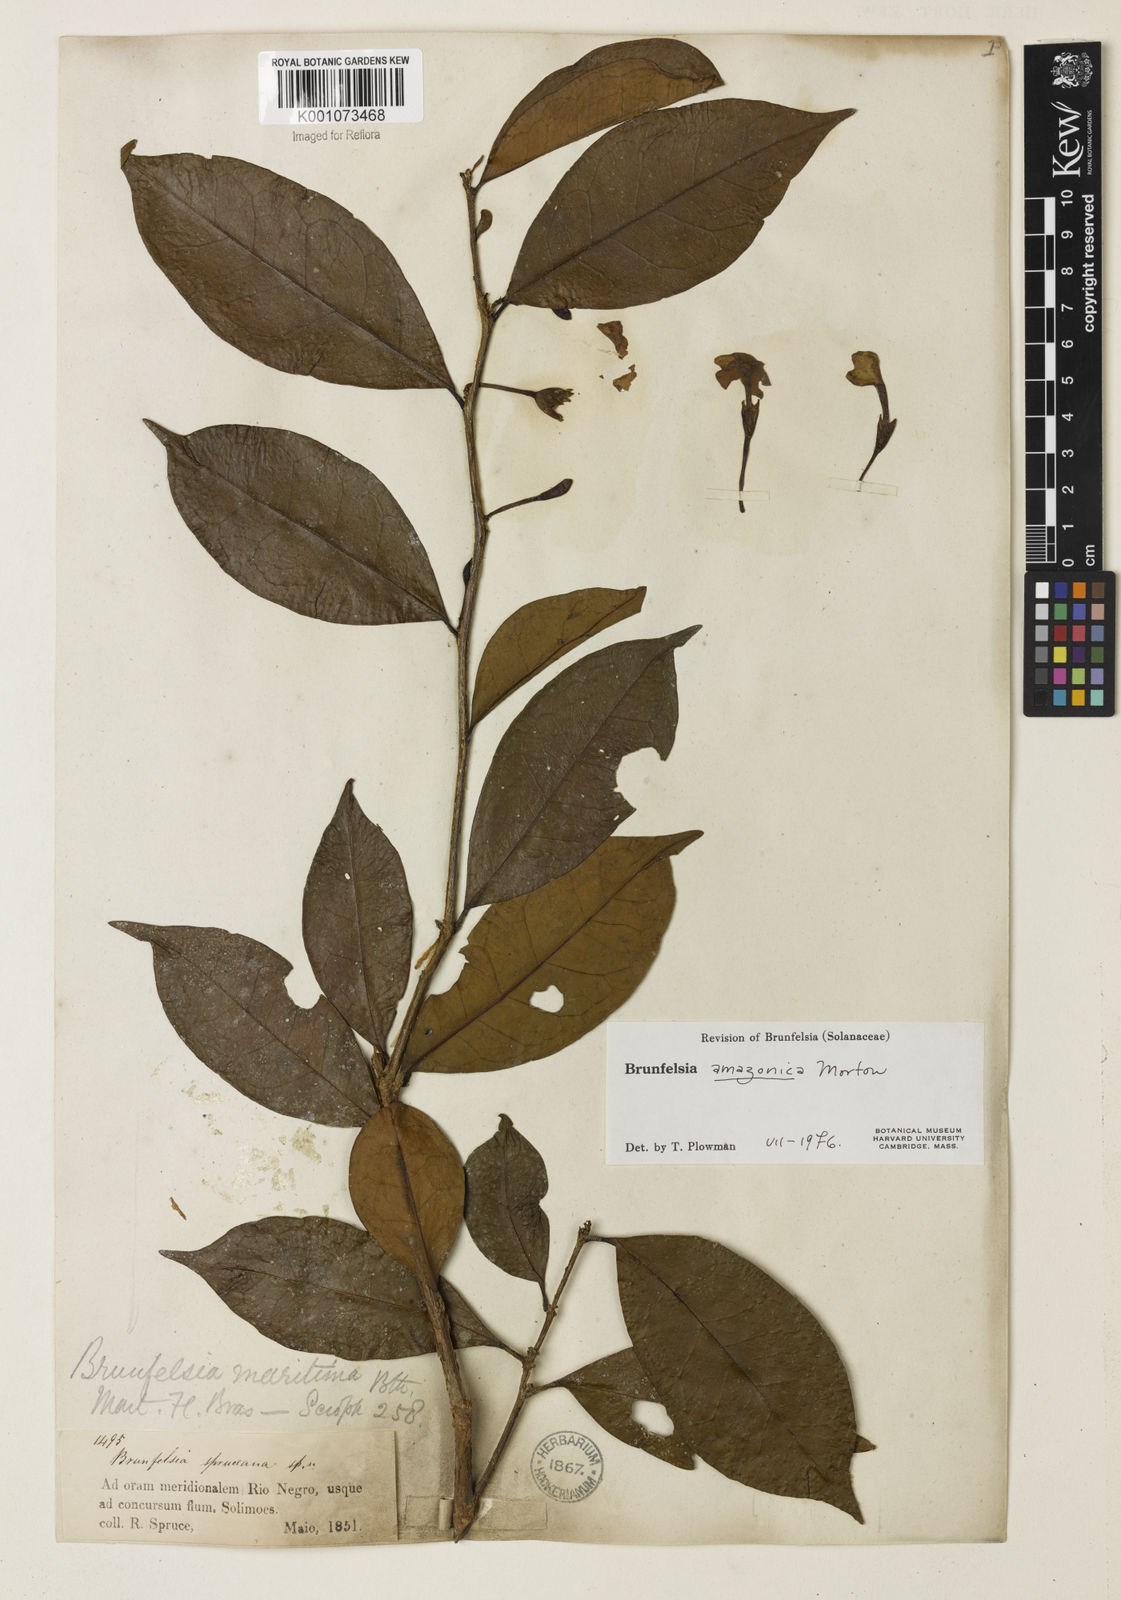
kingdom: Plantae
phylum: Tracheophyta
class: Magnoliopsida
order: Solanales
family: Solanaceae
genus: Brunfelsia
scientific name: Brunfelsia amazonica
